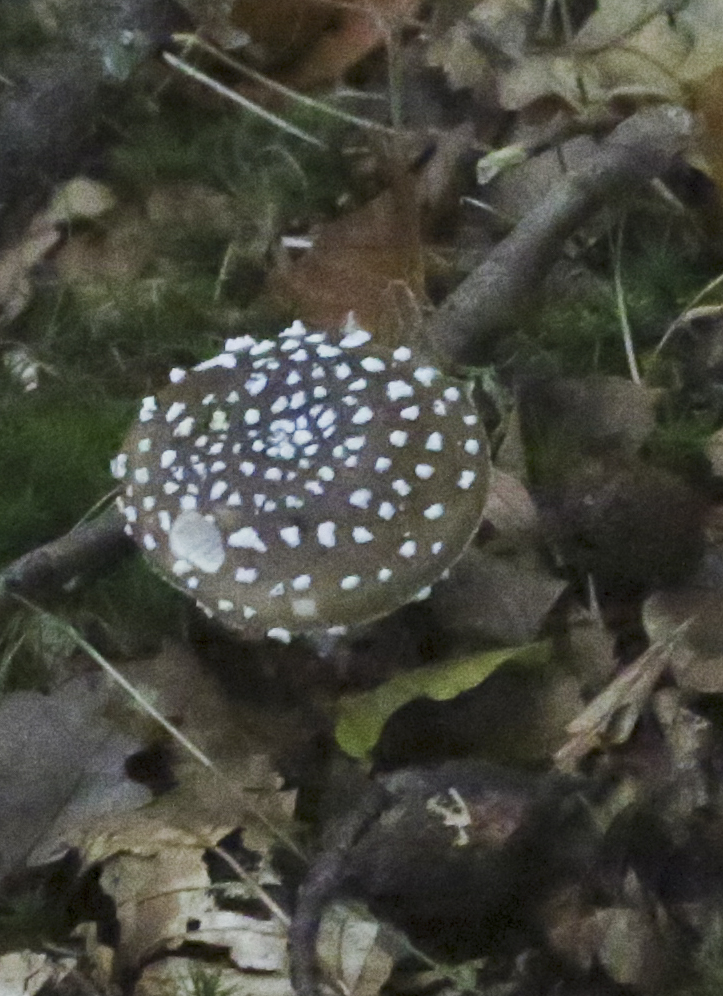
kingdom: Fungi
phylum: Basidiomycota
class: Agaricomycetes
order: Agaricales
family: Amanitaceae
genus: Amanita
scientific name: Amanita pantherina
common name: panter-fluesvamp
